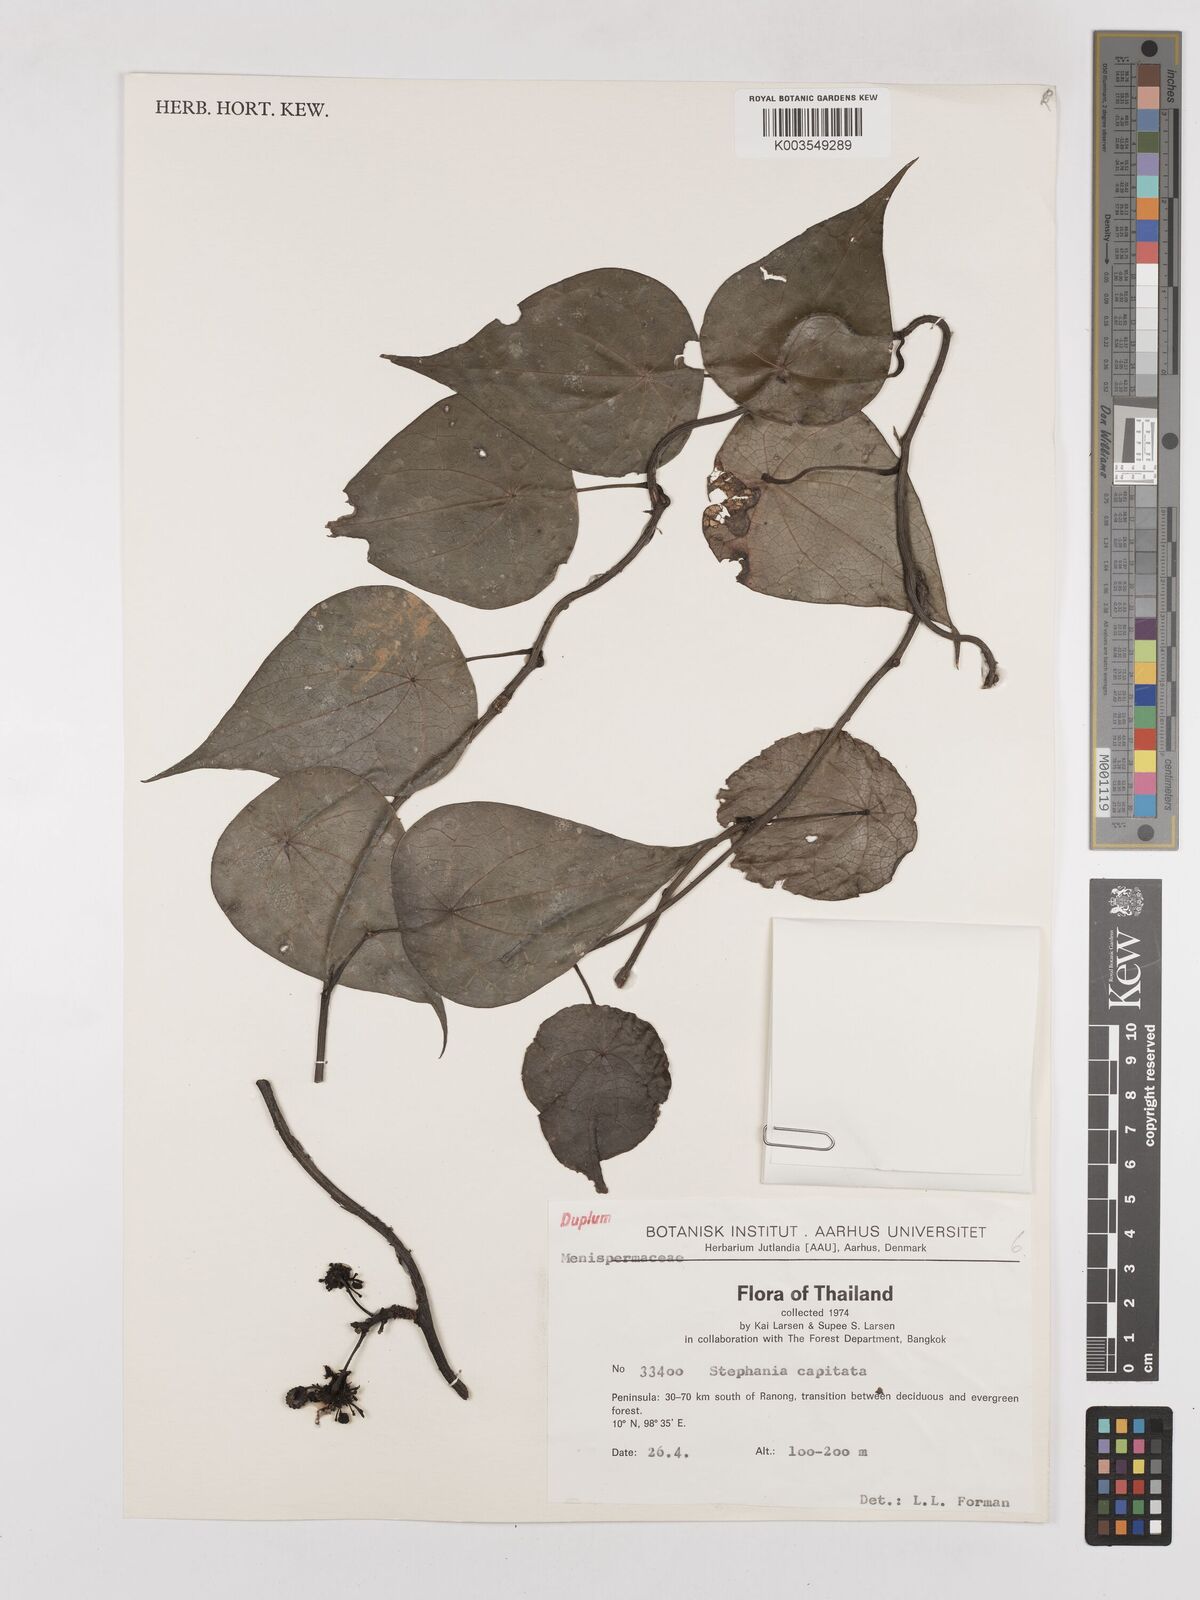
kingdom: Plantae
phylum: Tracheophyta
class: Magnoliopsida
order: Ranunculales
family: Menispermaceae
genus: Stephania
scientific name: Stephania capitata
